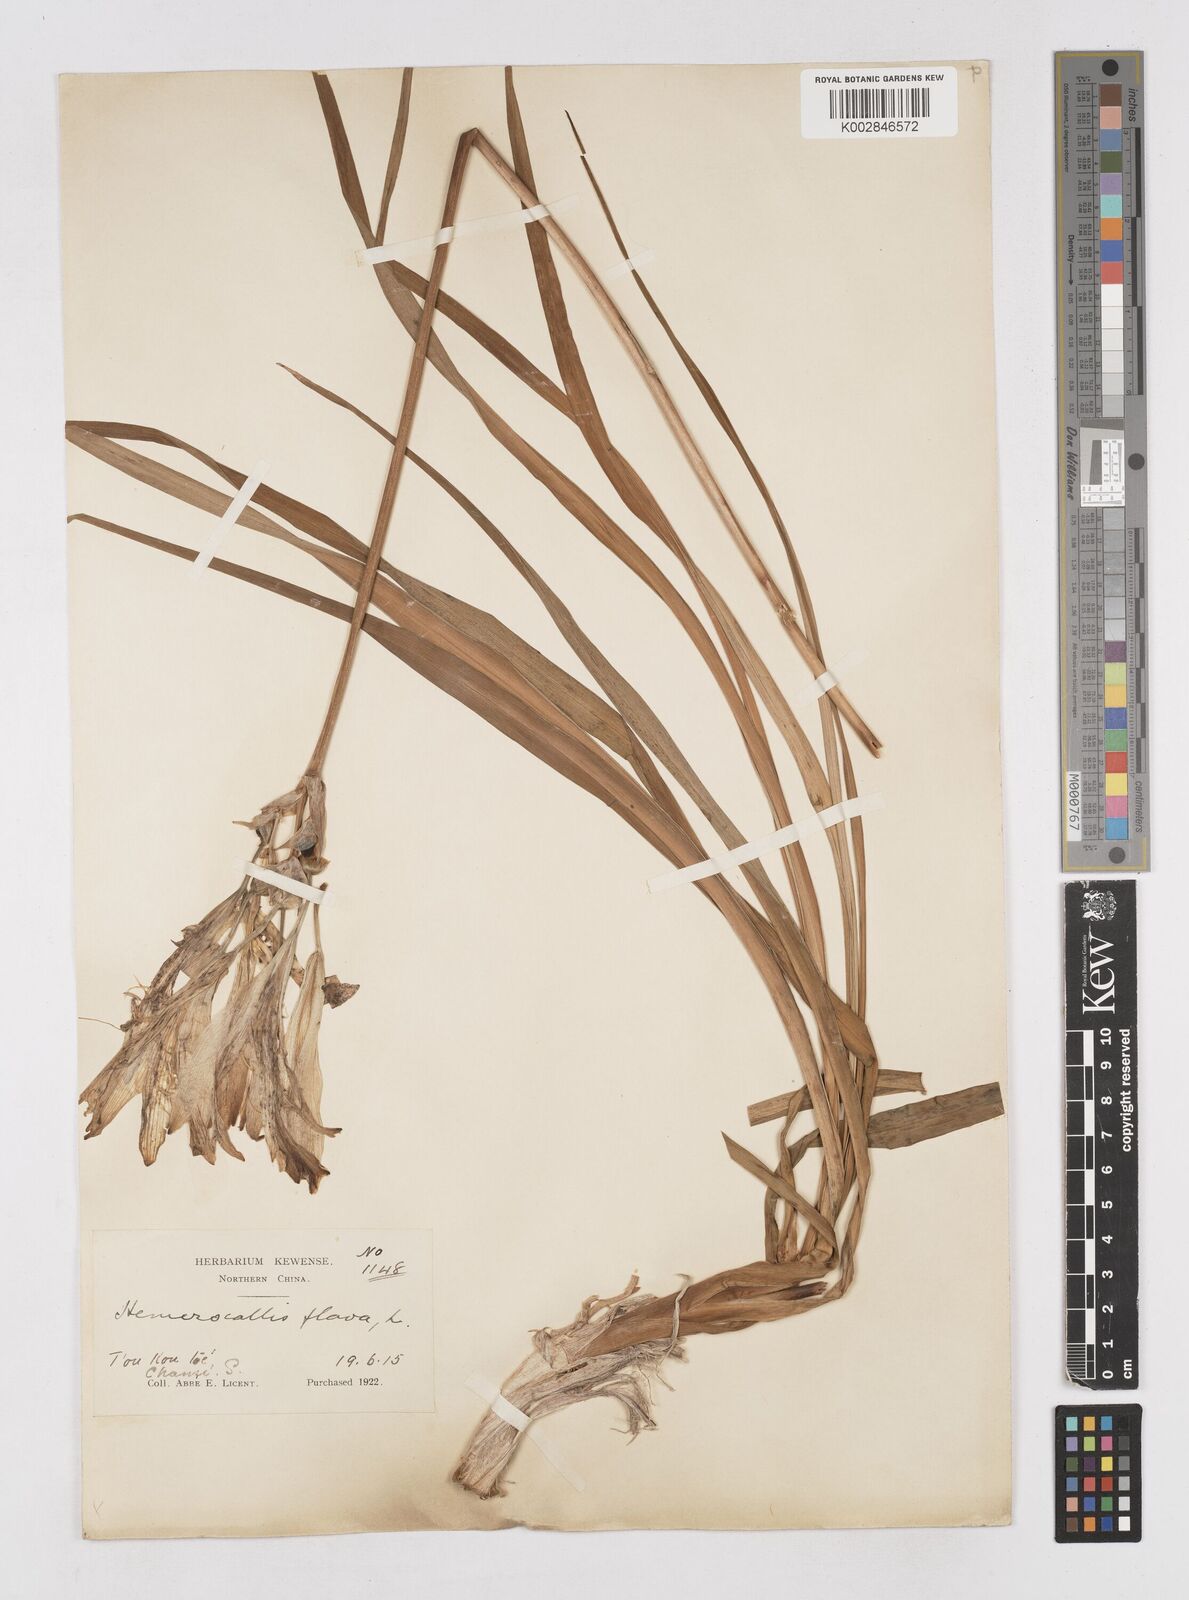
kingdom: Plantae
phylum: Tracheophyta
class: Liliopsida
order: Asparagales
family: Asphodelaceae
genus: Hemerocallis
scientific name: Hemerocallis
